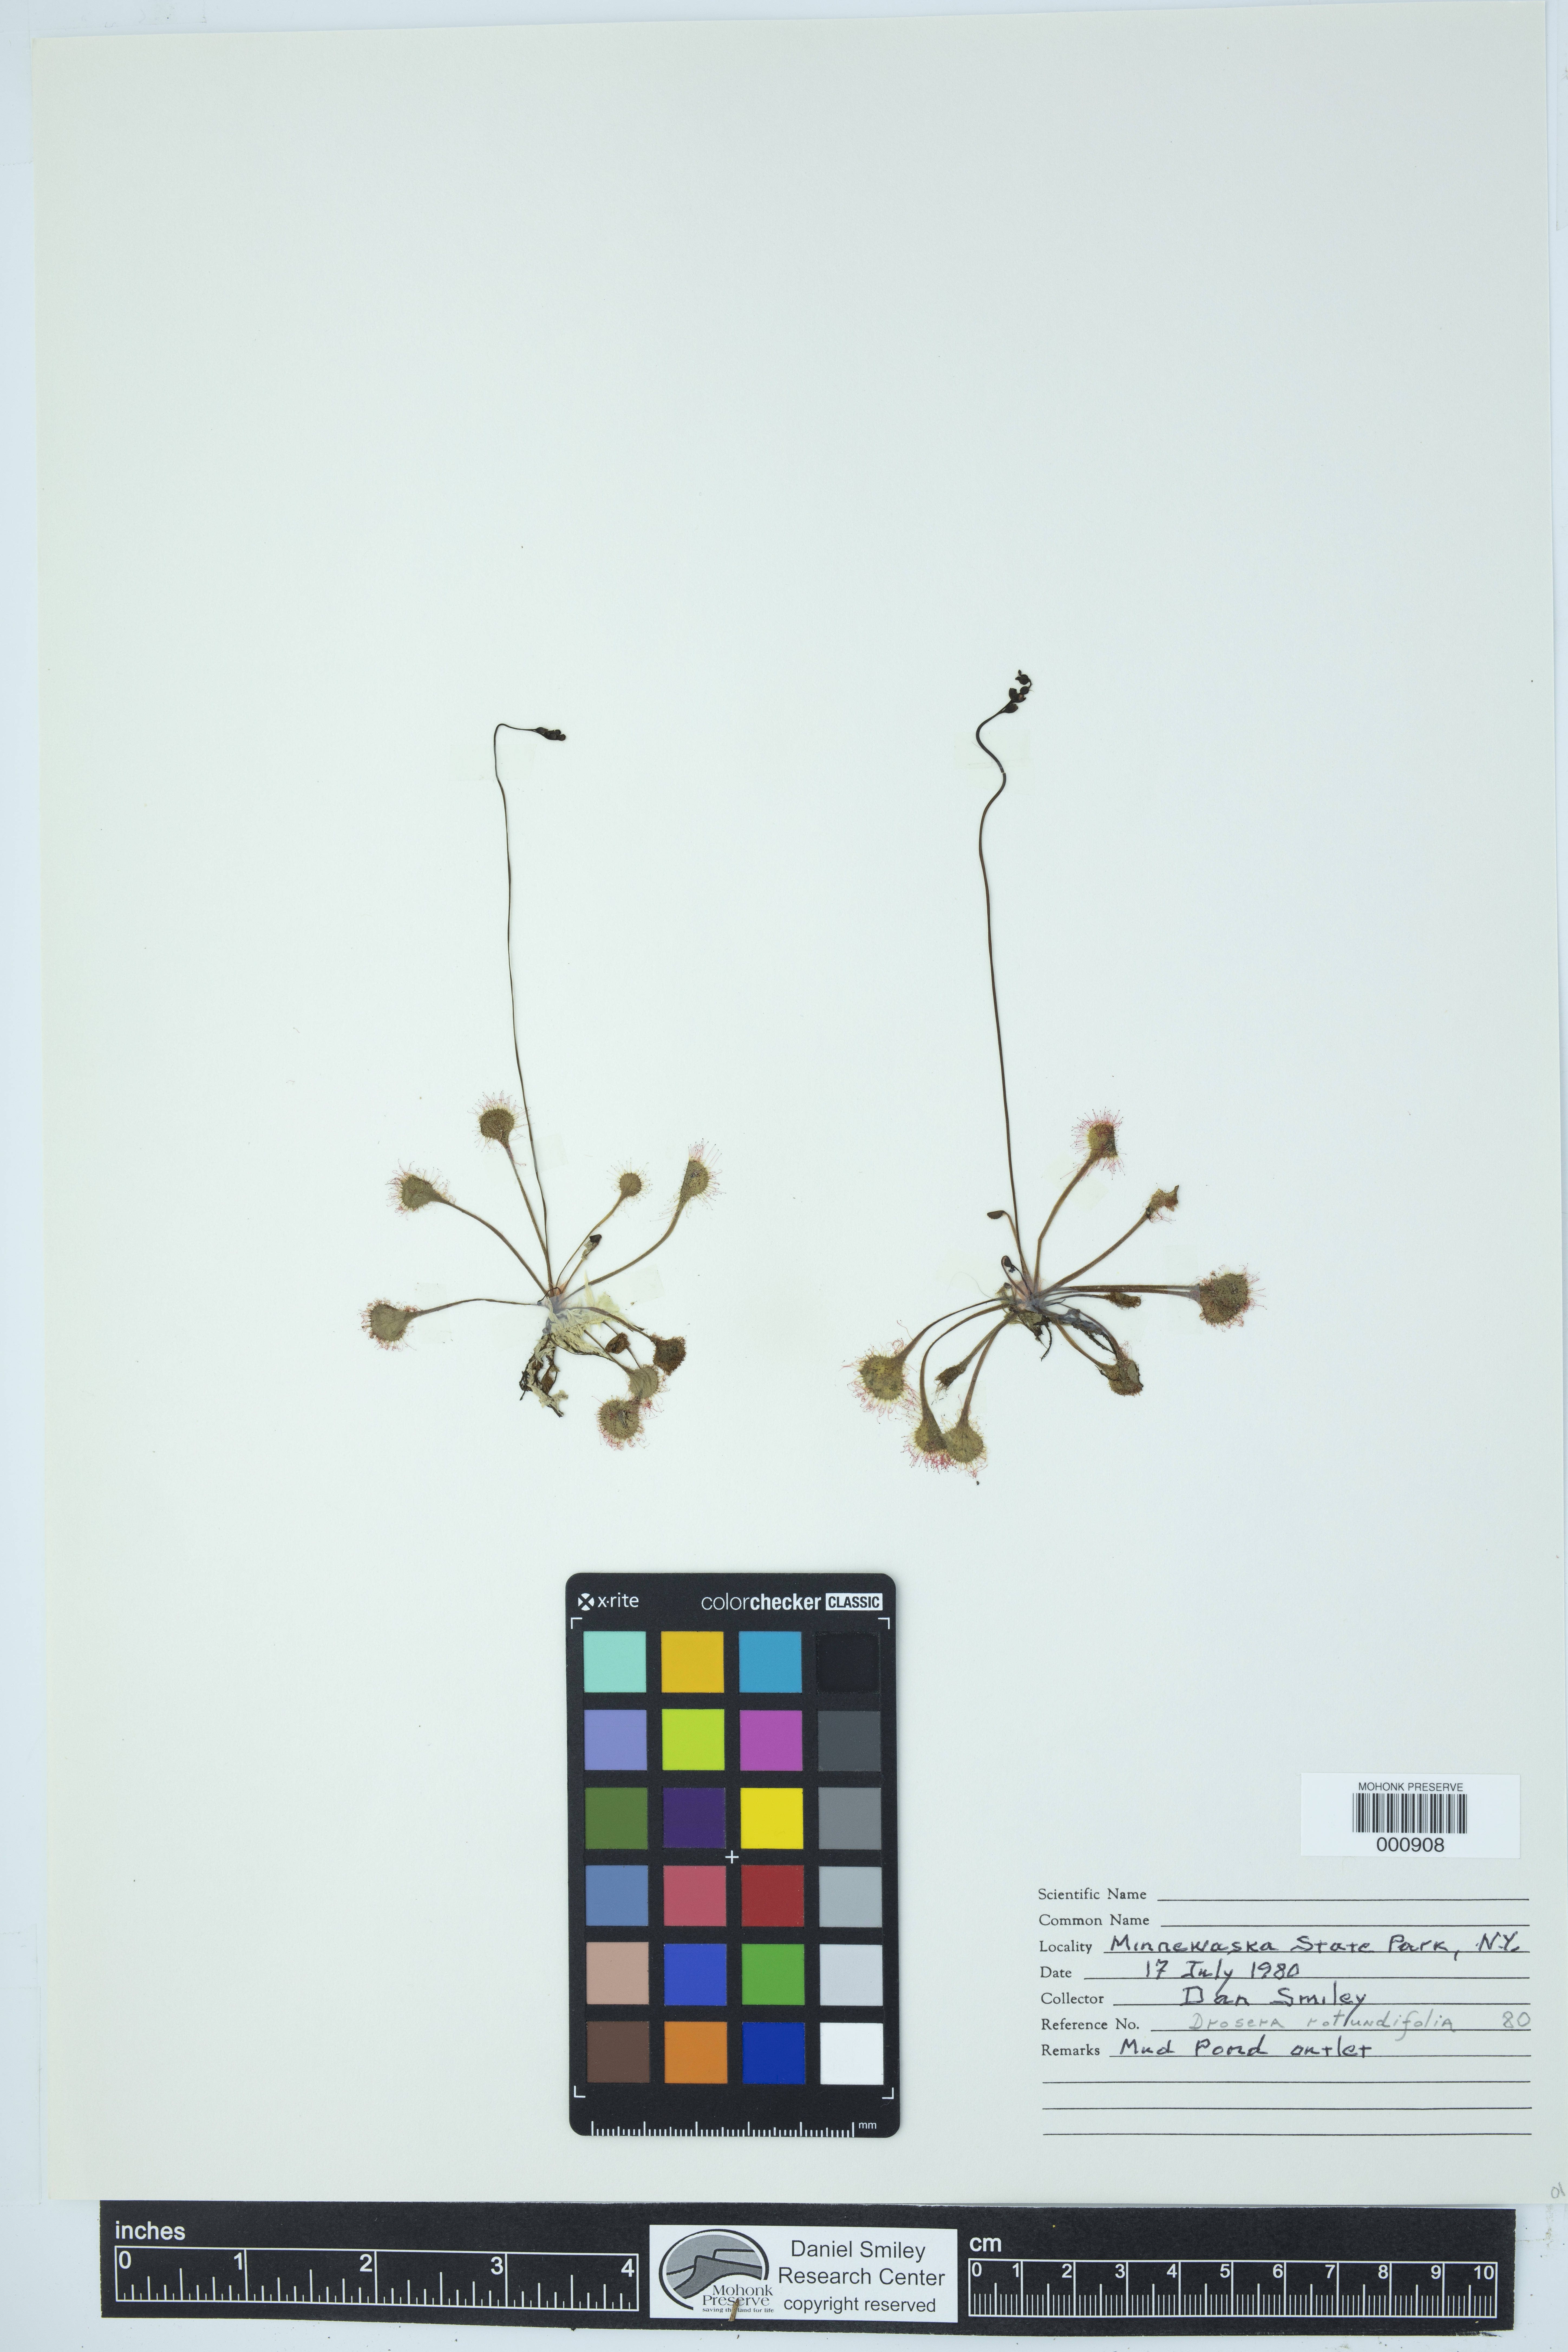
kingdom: Plantae
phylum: Tracheophyta
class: Magnoliopsida
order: Caryophyllales
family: Droseraceae
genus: Drosera
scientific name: Drosera rotundifolia
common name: Round-leaved sundew
